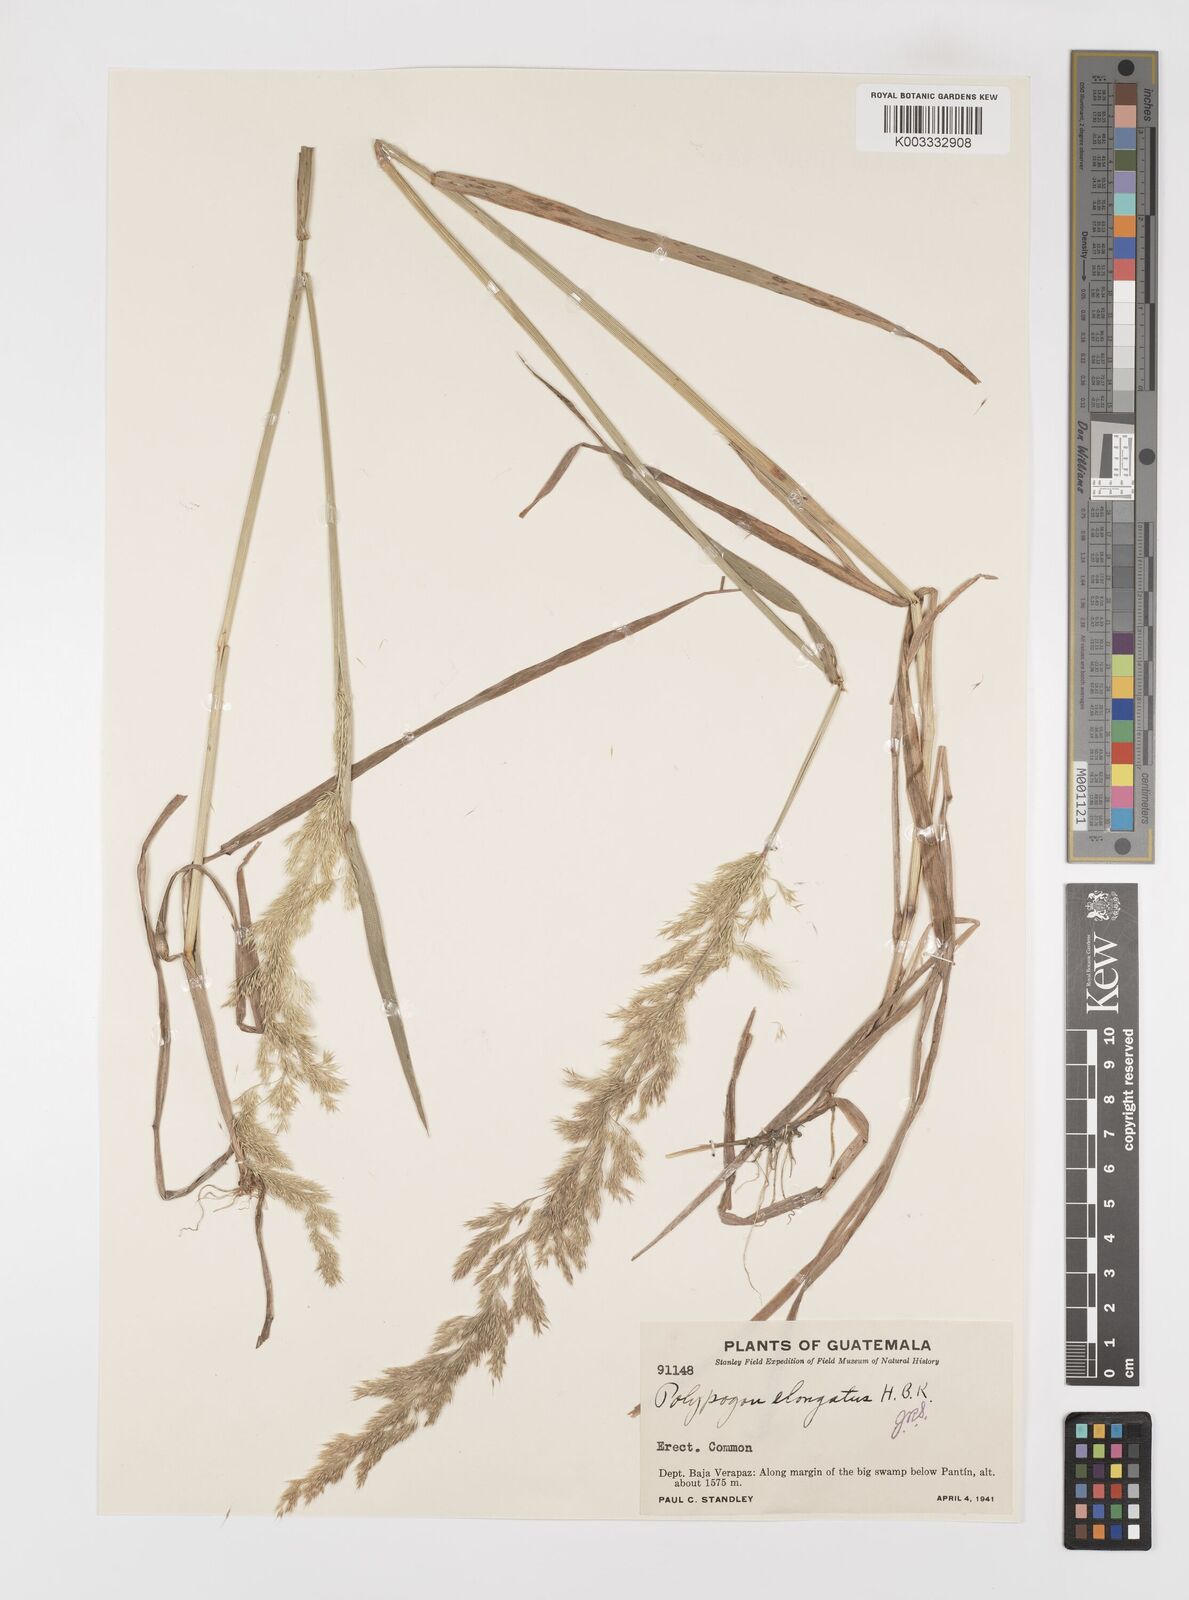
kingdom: Plantae
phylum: Tracheophyta
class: Liliopsida
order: Poales
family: Poaceae
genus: Polypogon
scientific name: Polypogon elongatus
